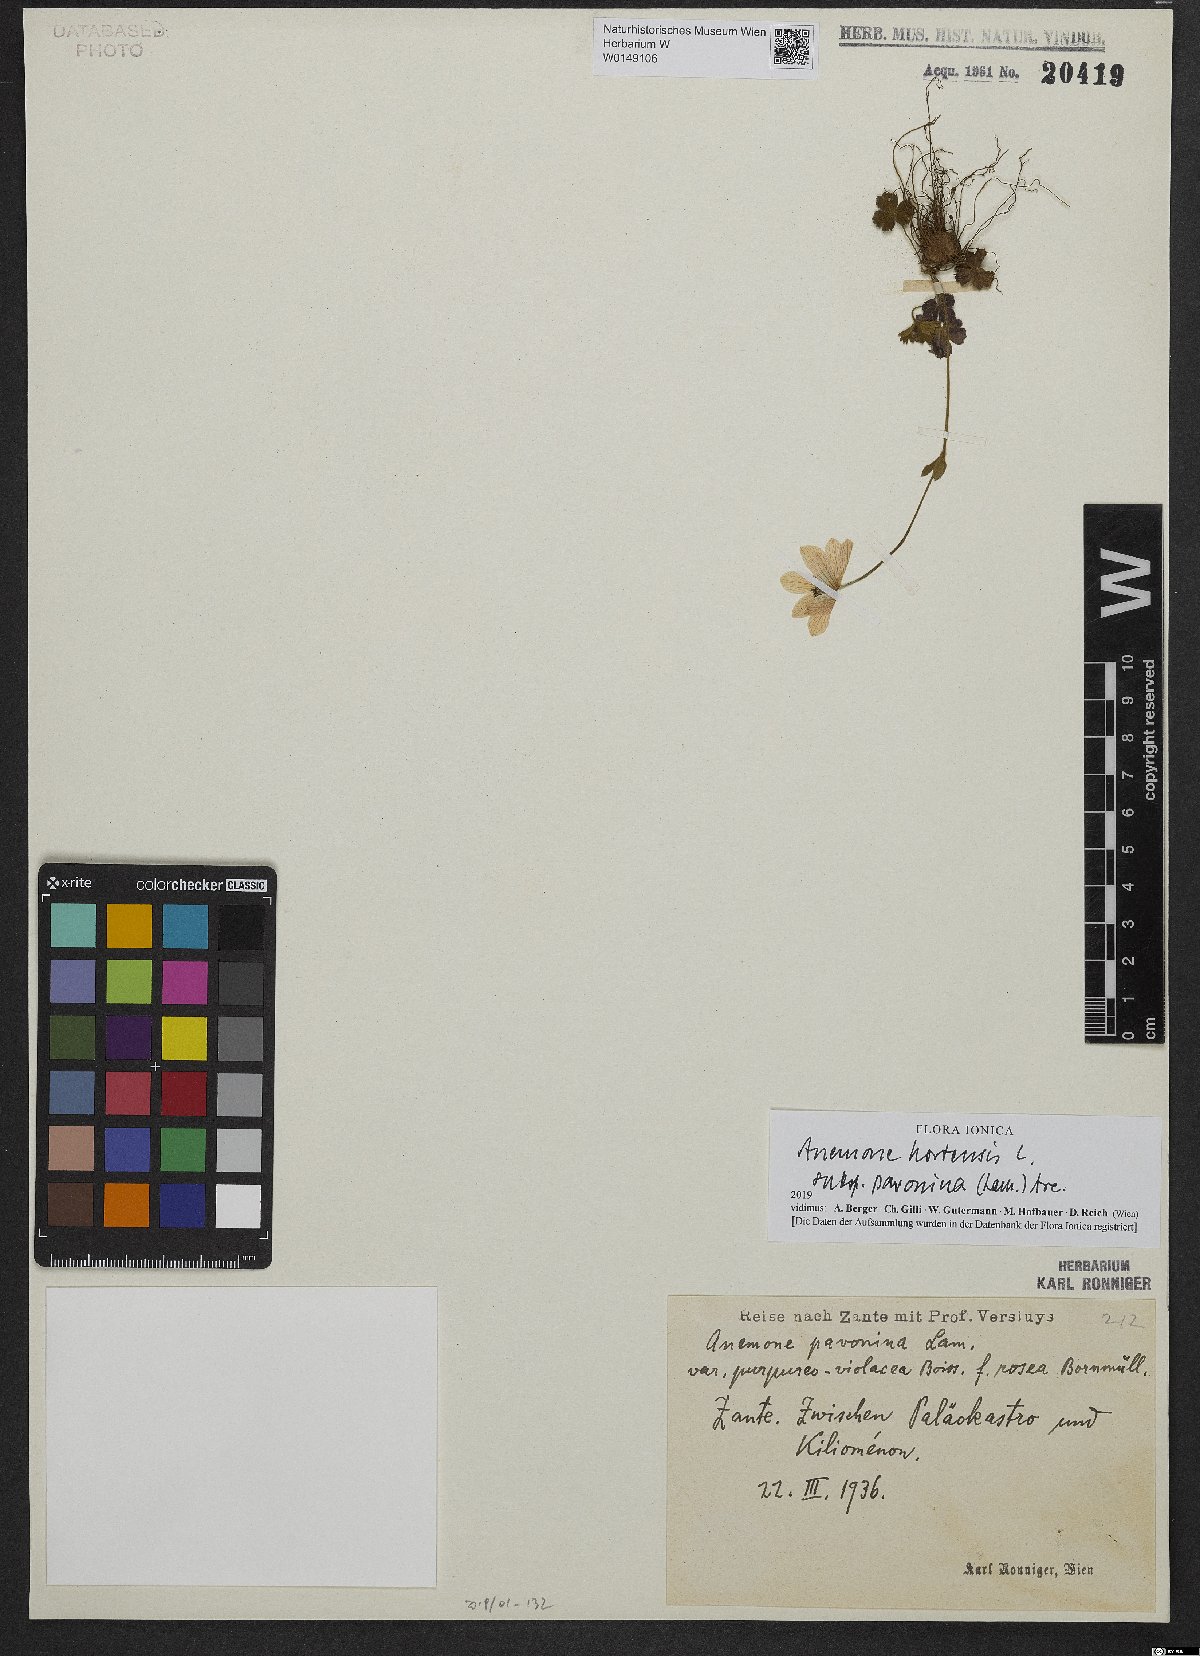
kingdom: Plantae
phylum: Tracheophyta
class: Magnoliopsida
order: Ranunculales
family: Ranunculaceae
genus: Anemone
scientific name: Anemone pavonina
